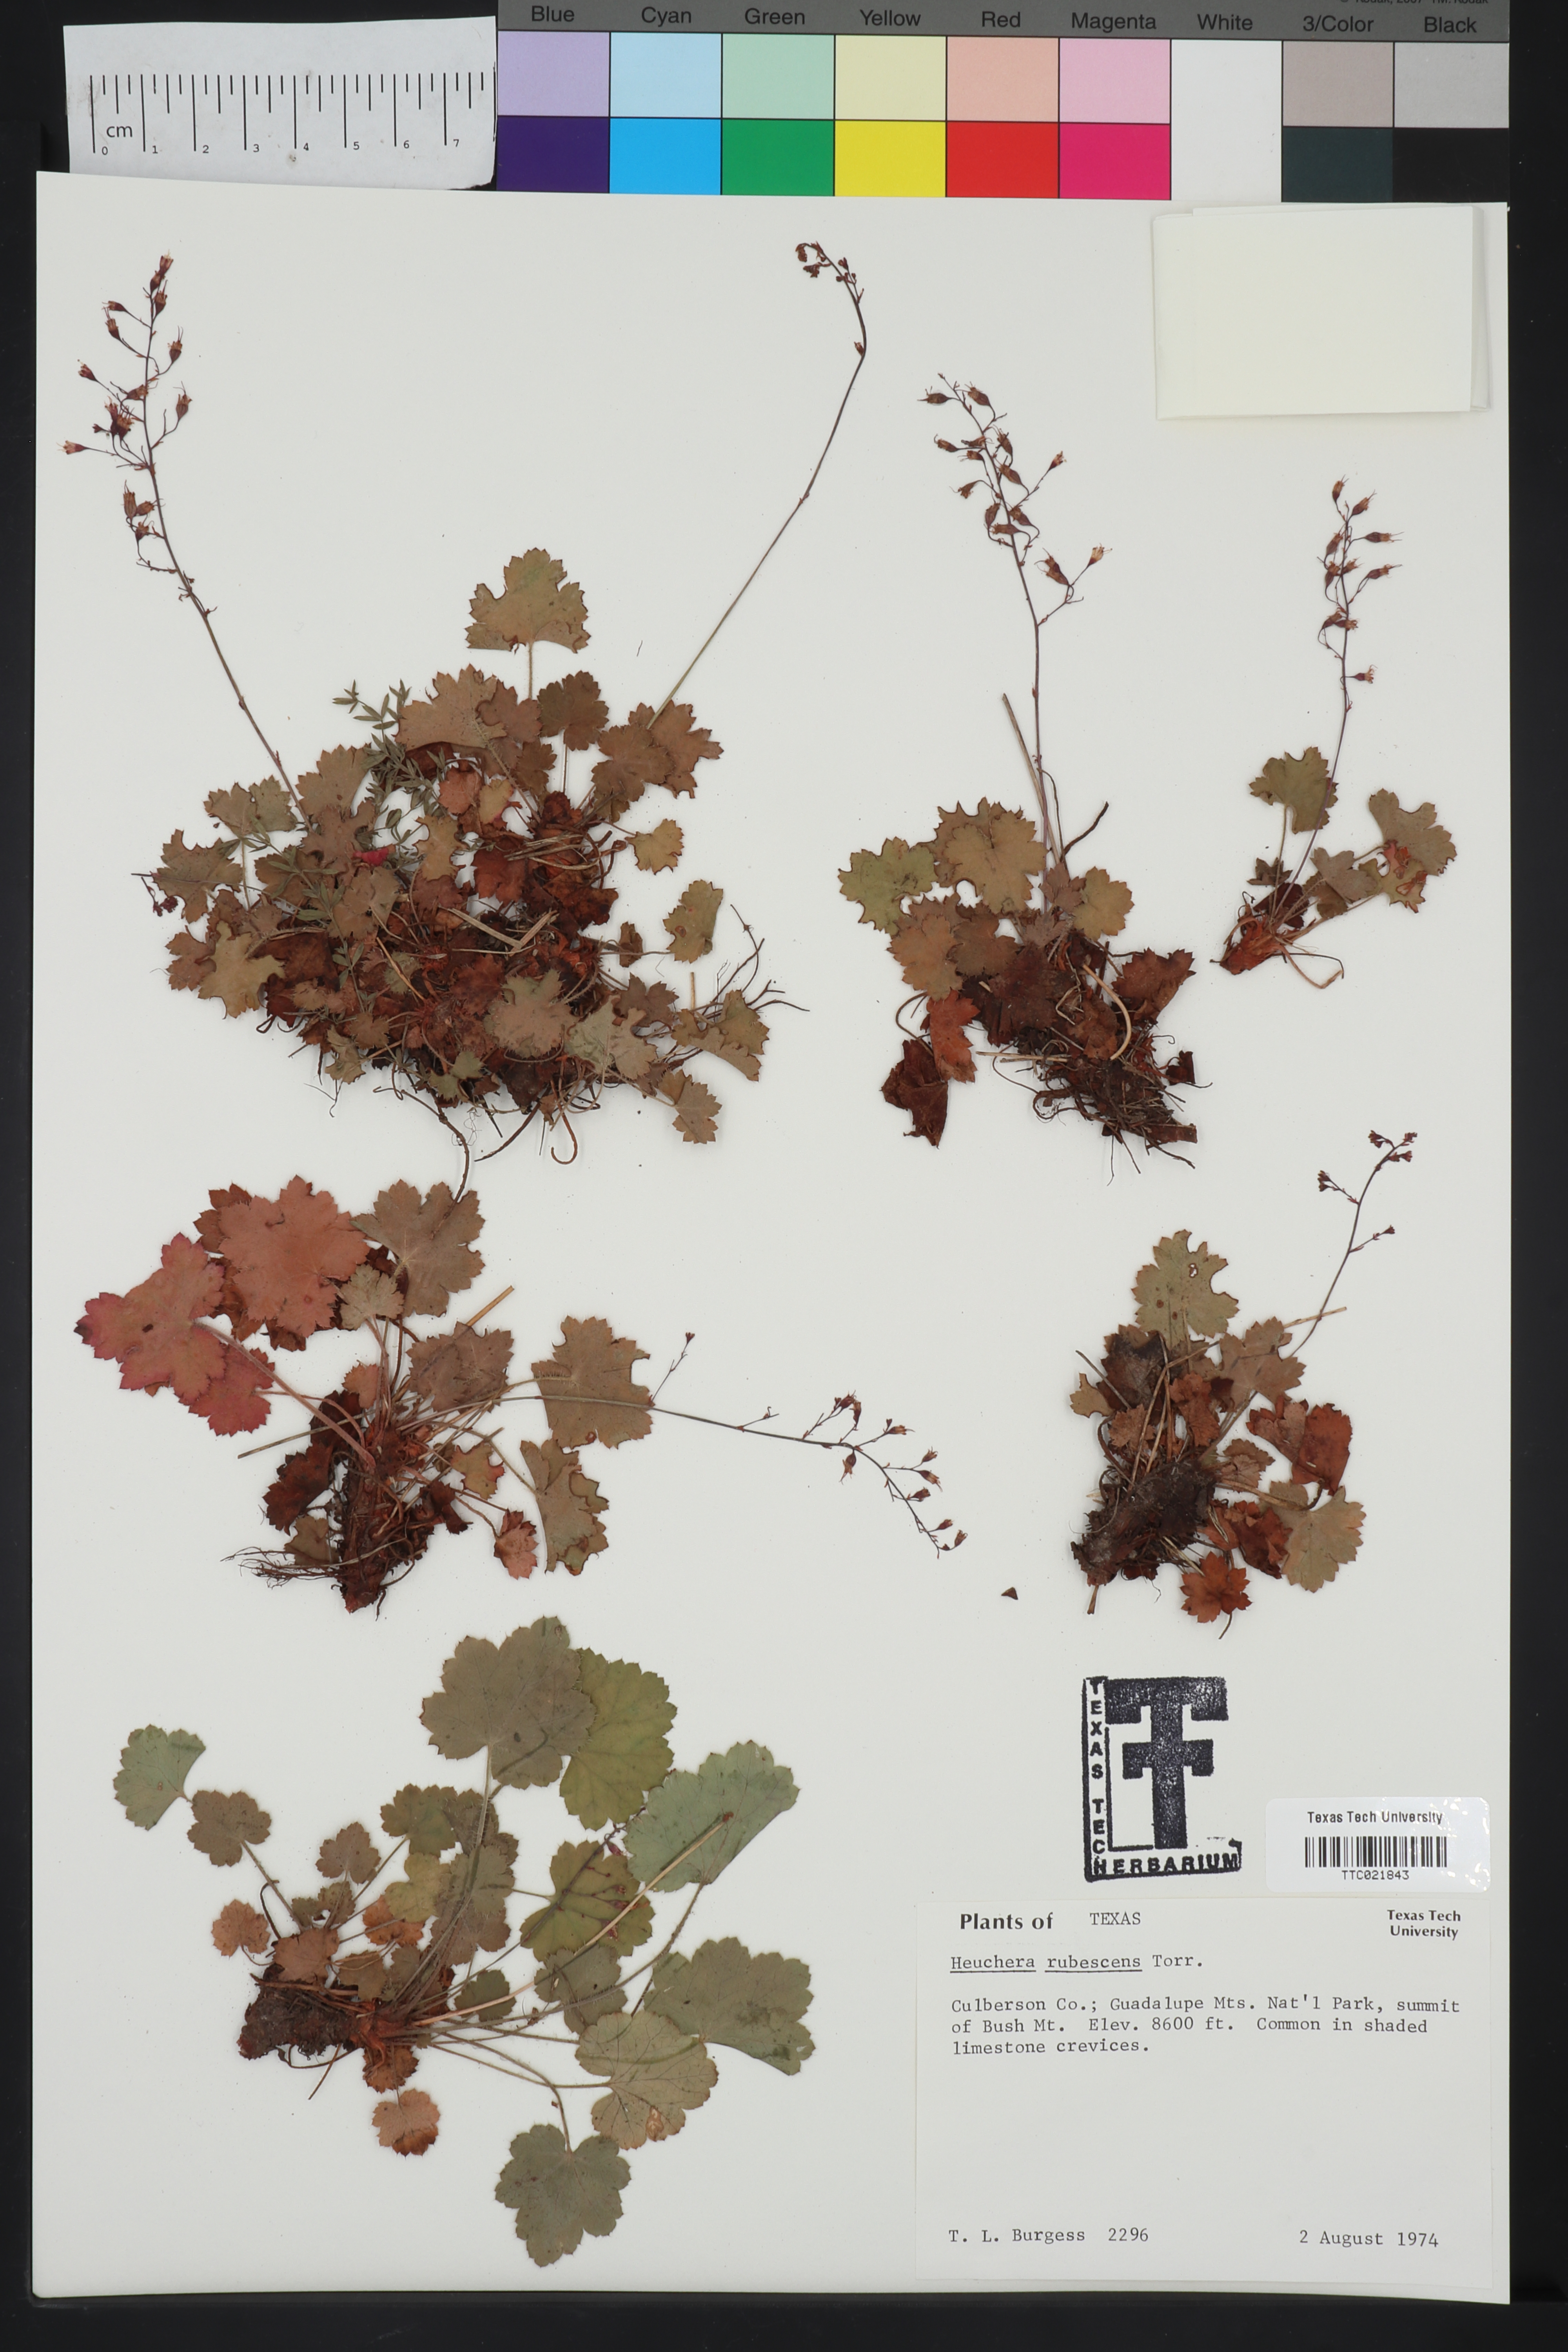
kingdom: Plantae
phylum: Tracheophyta
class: Magnoliopsida
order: Saxifragales
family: Saxifragaceae
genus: Heuchera
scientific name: Heuchera rubescens
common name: Jack-o'the-rocks
